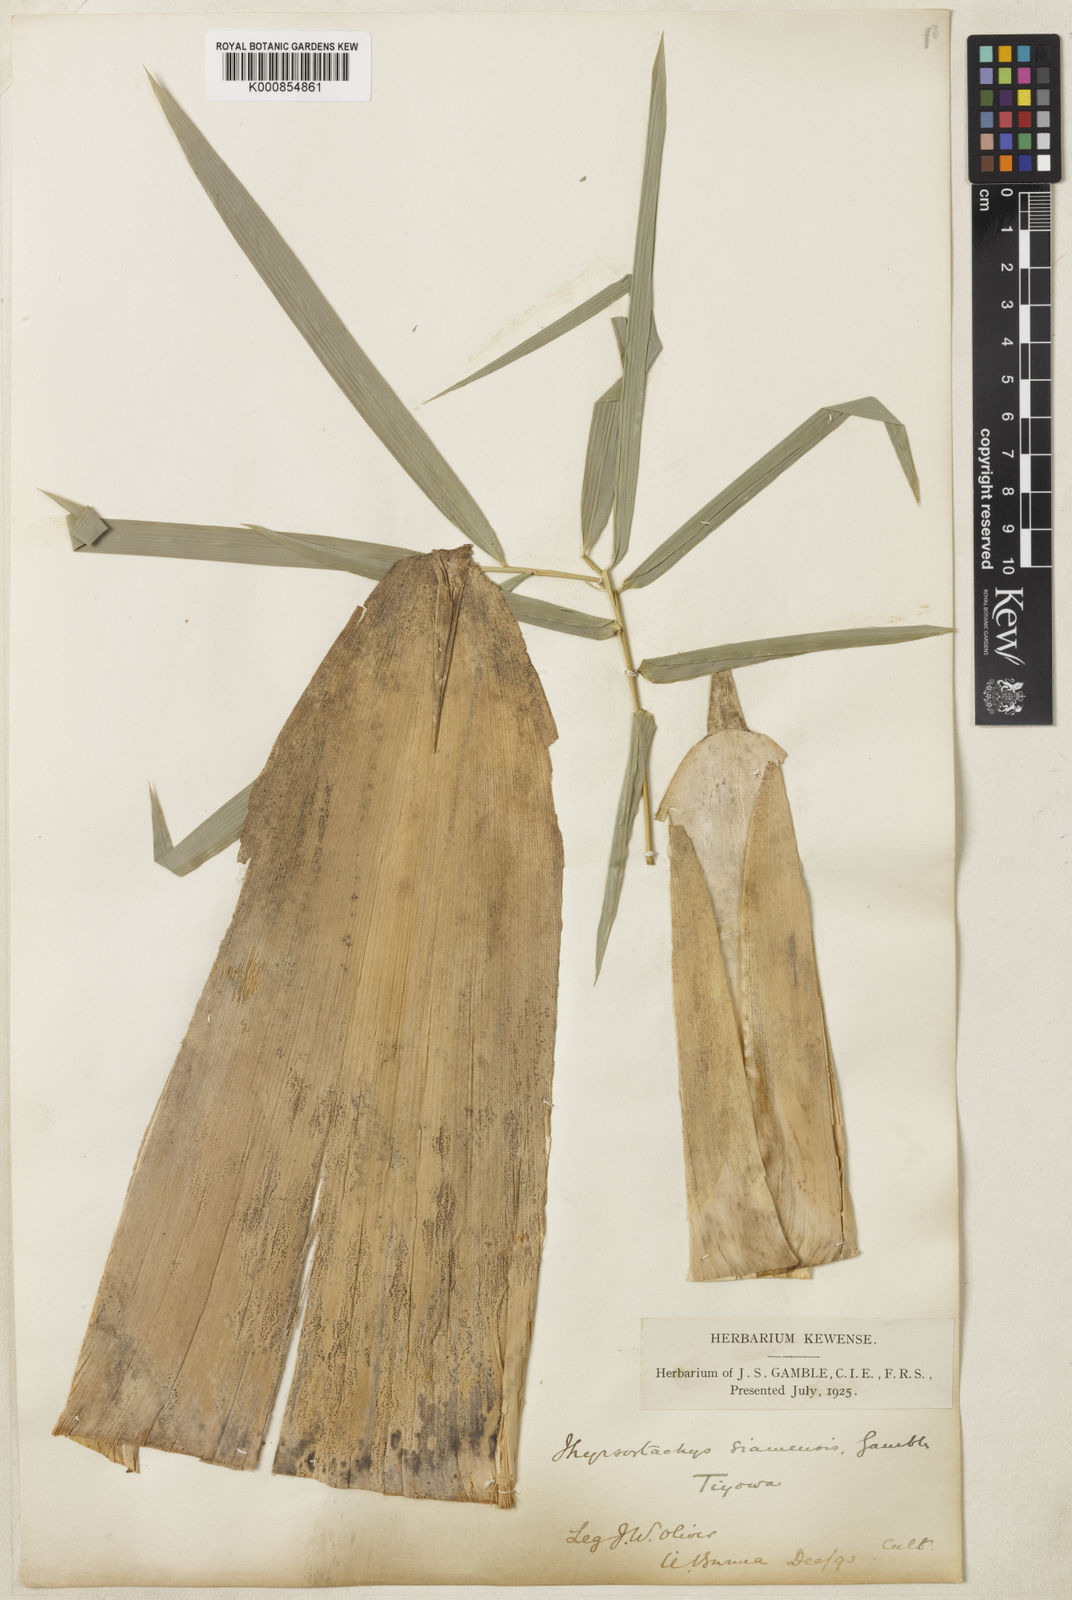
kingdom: Plantae
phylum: Tracheophyta
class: Liliopsida
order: Poales
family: Poaceae
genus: Thyrsostachys
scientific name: Thyrsostachys siamensis
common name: Thailand bamboo
